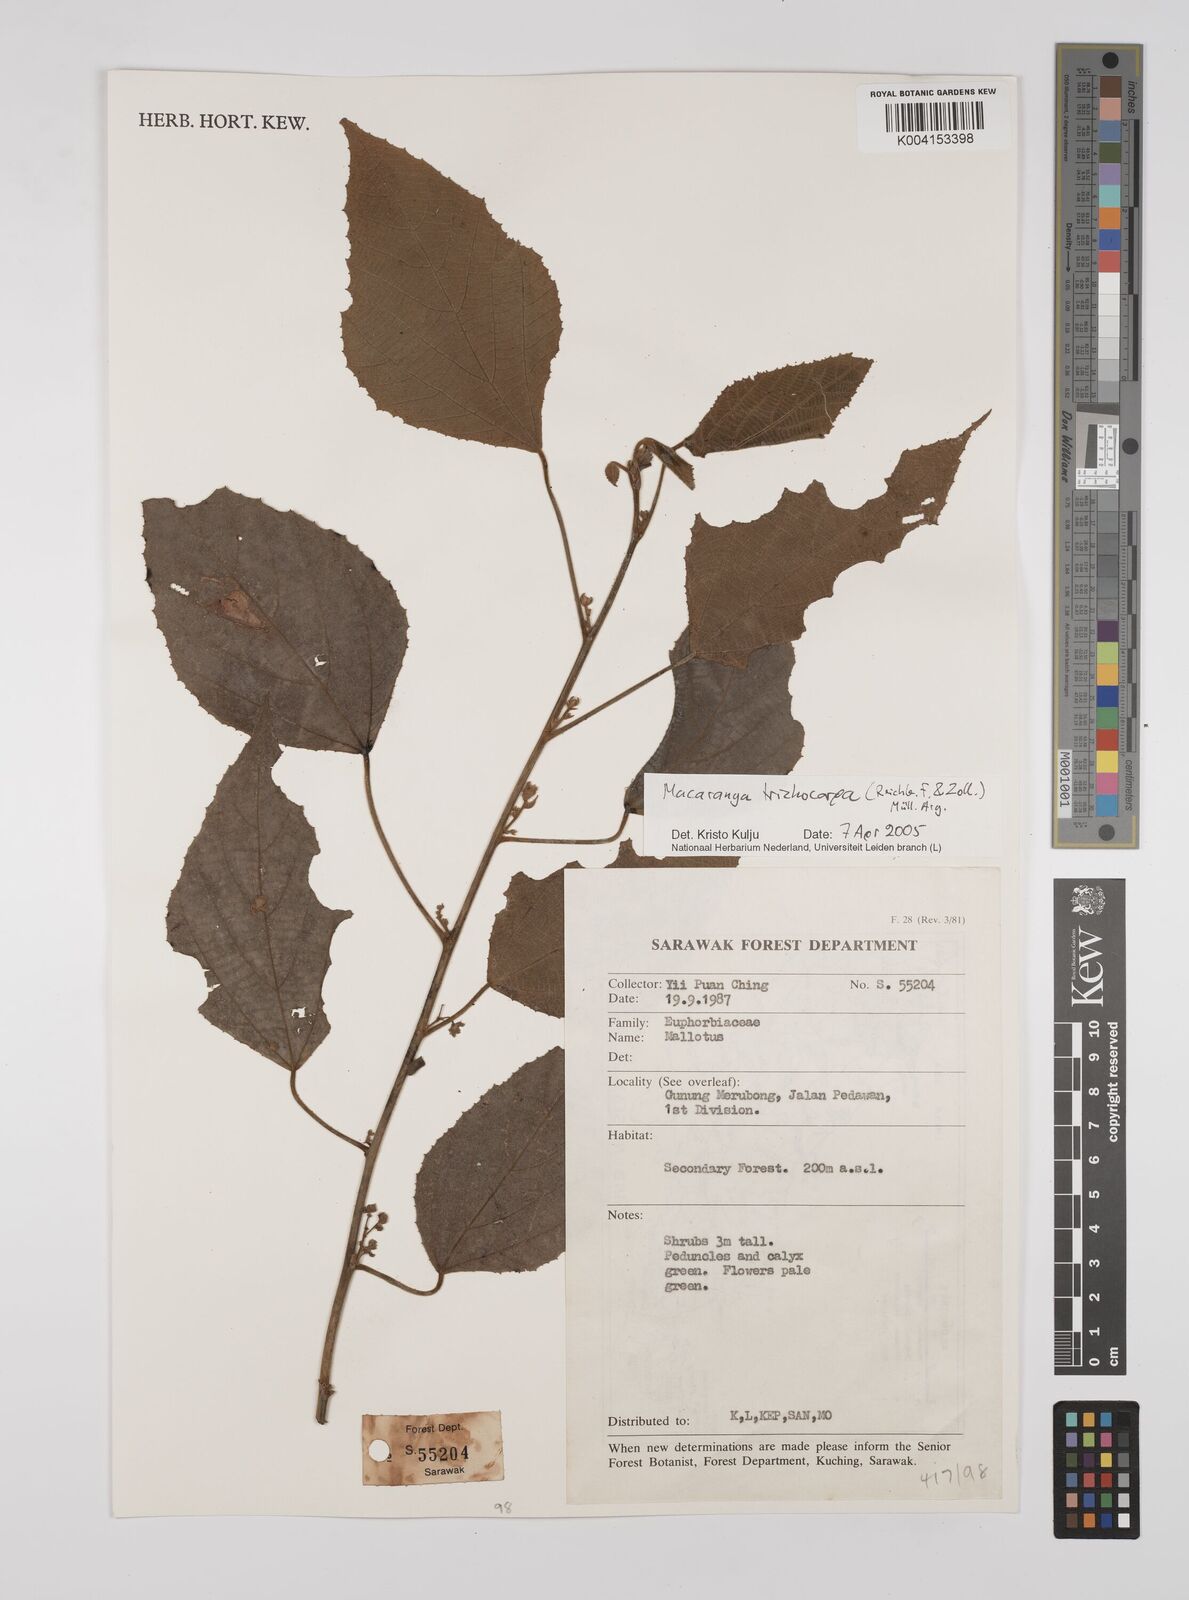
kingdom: Plantae
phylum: Tracheophyta
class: Magnoliopsida
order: Malpighiales
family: Euphorbiaceae
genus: Macaranga
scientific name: Macaranga trichocarpa
